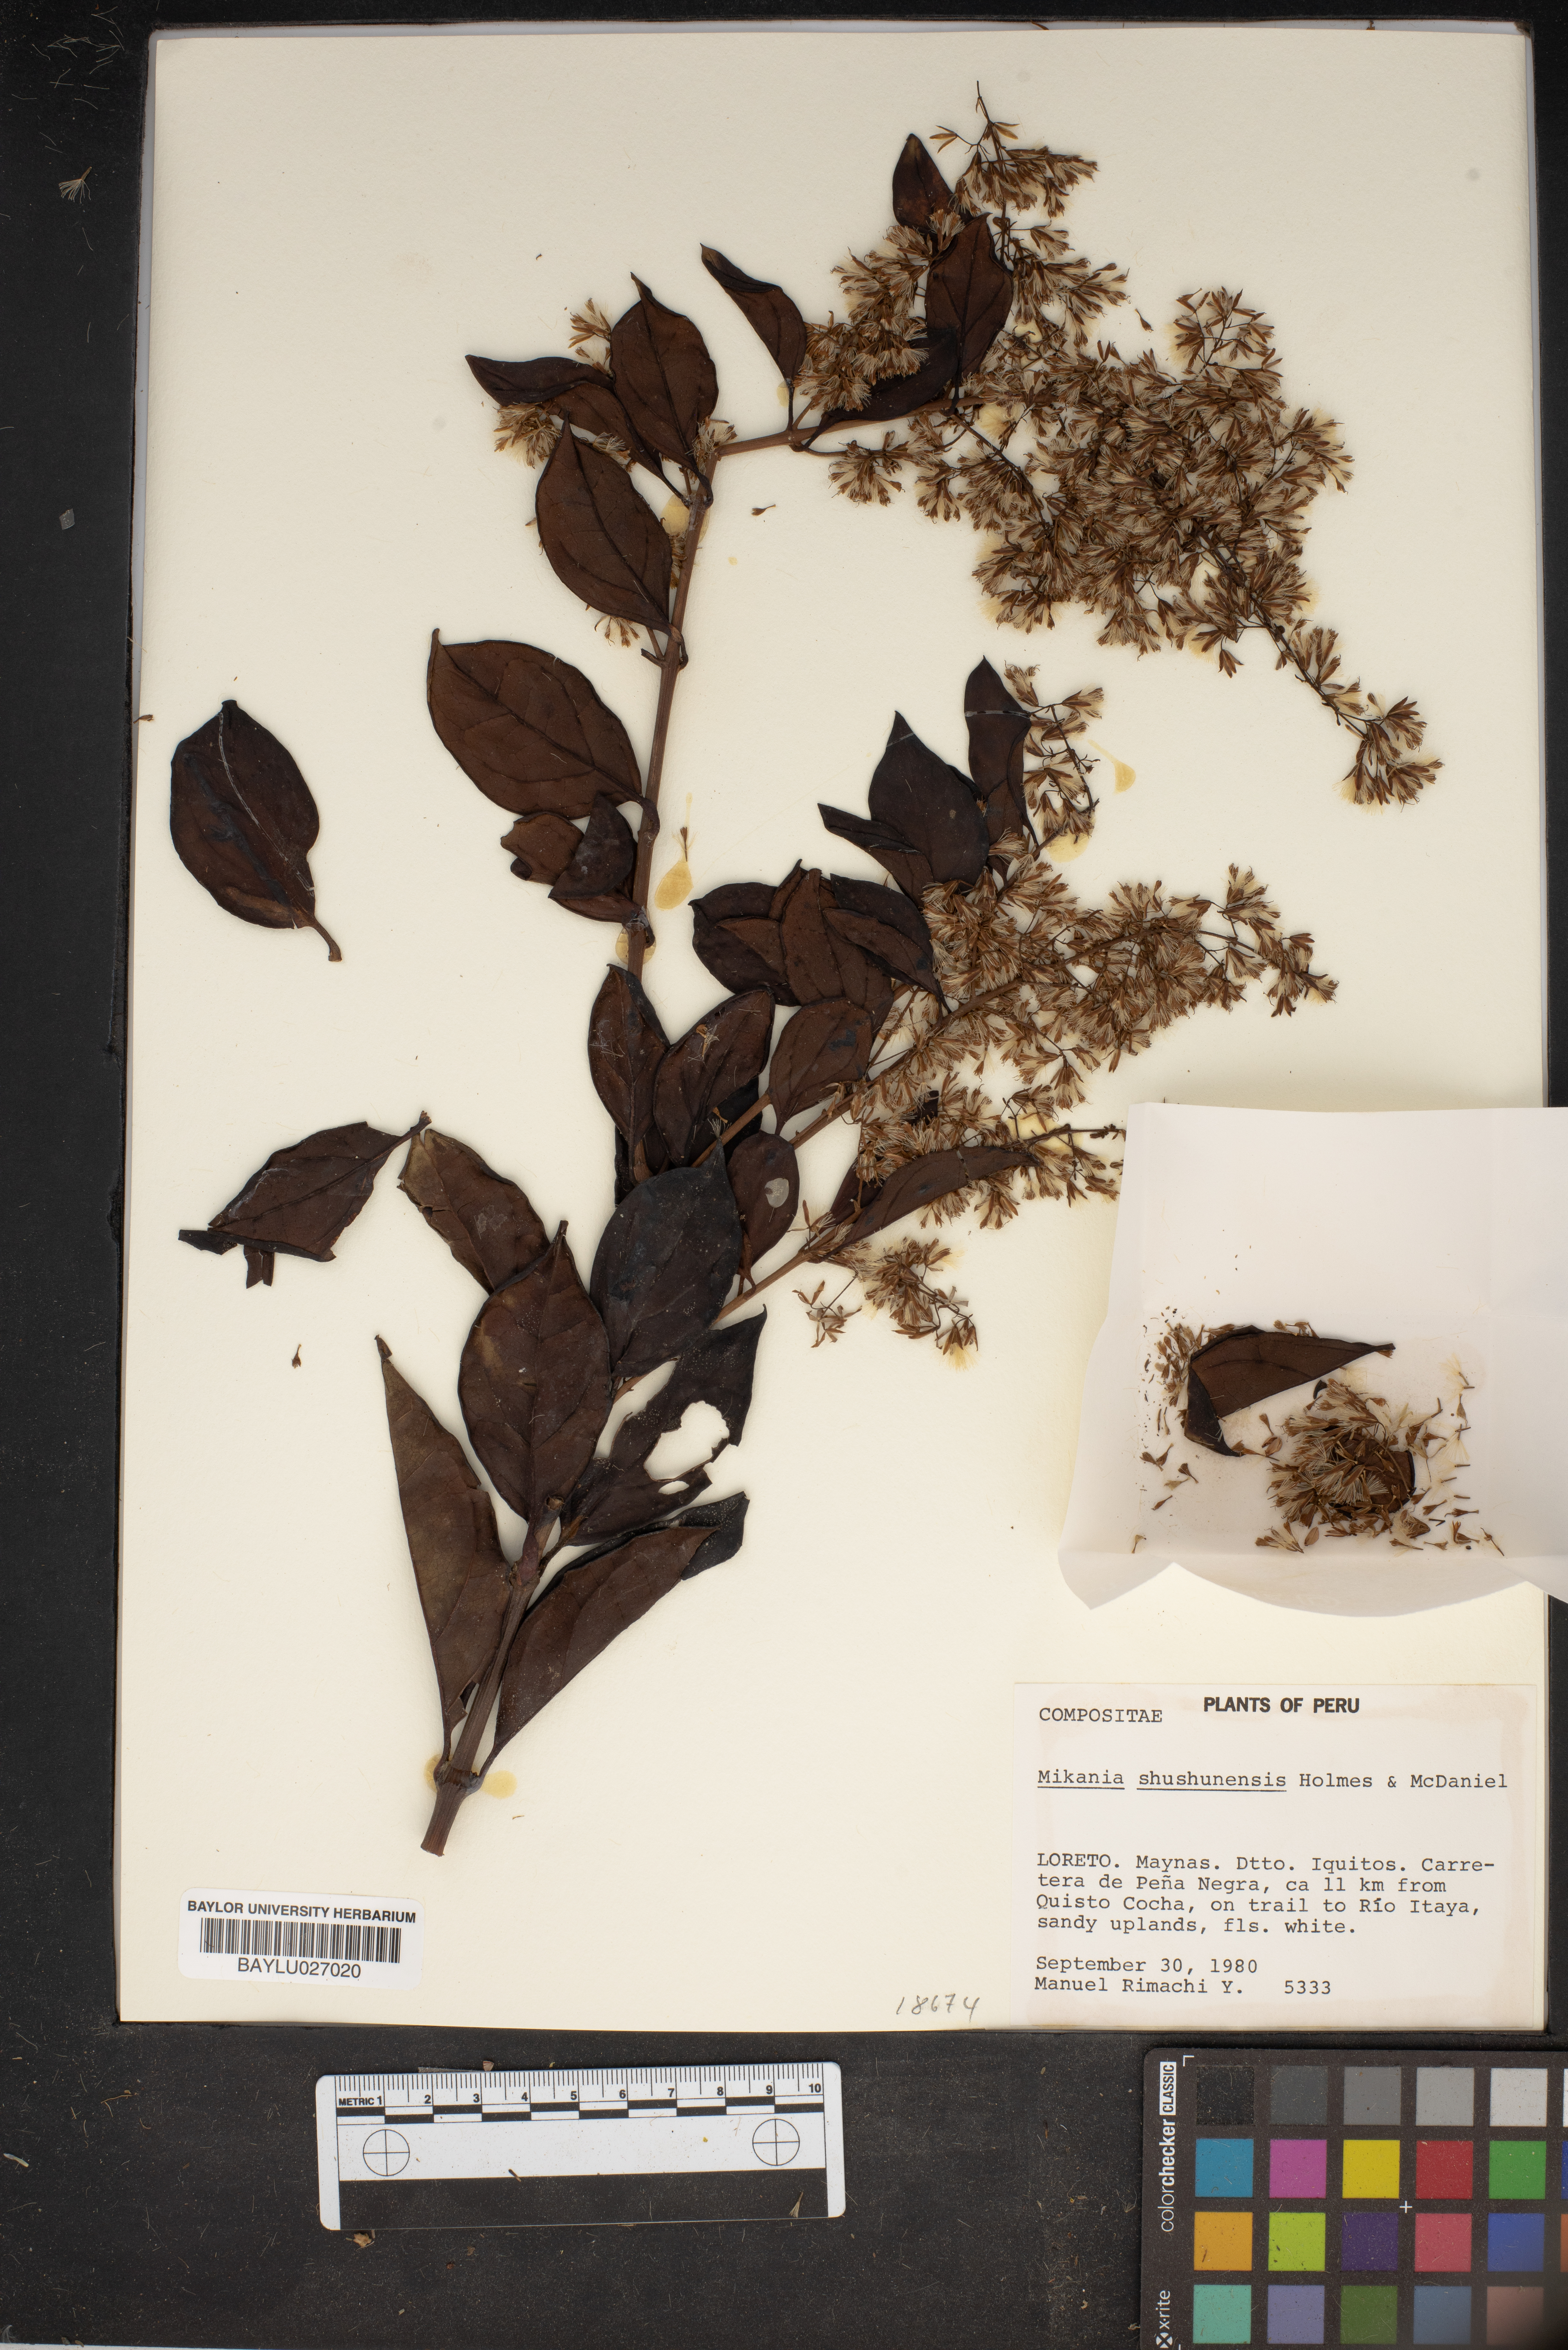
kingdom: Plantae
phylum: Tracheophyta
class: Magnoliopsida
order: Asterales
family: Asteraceae
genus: Mikania
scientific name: Mikania shushunensis
